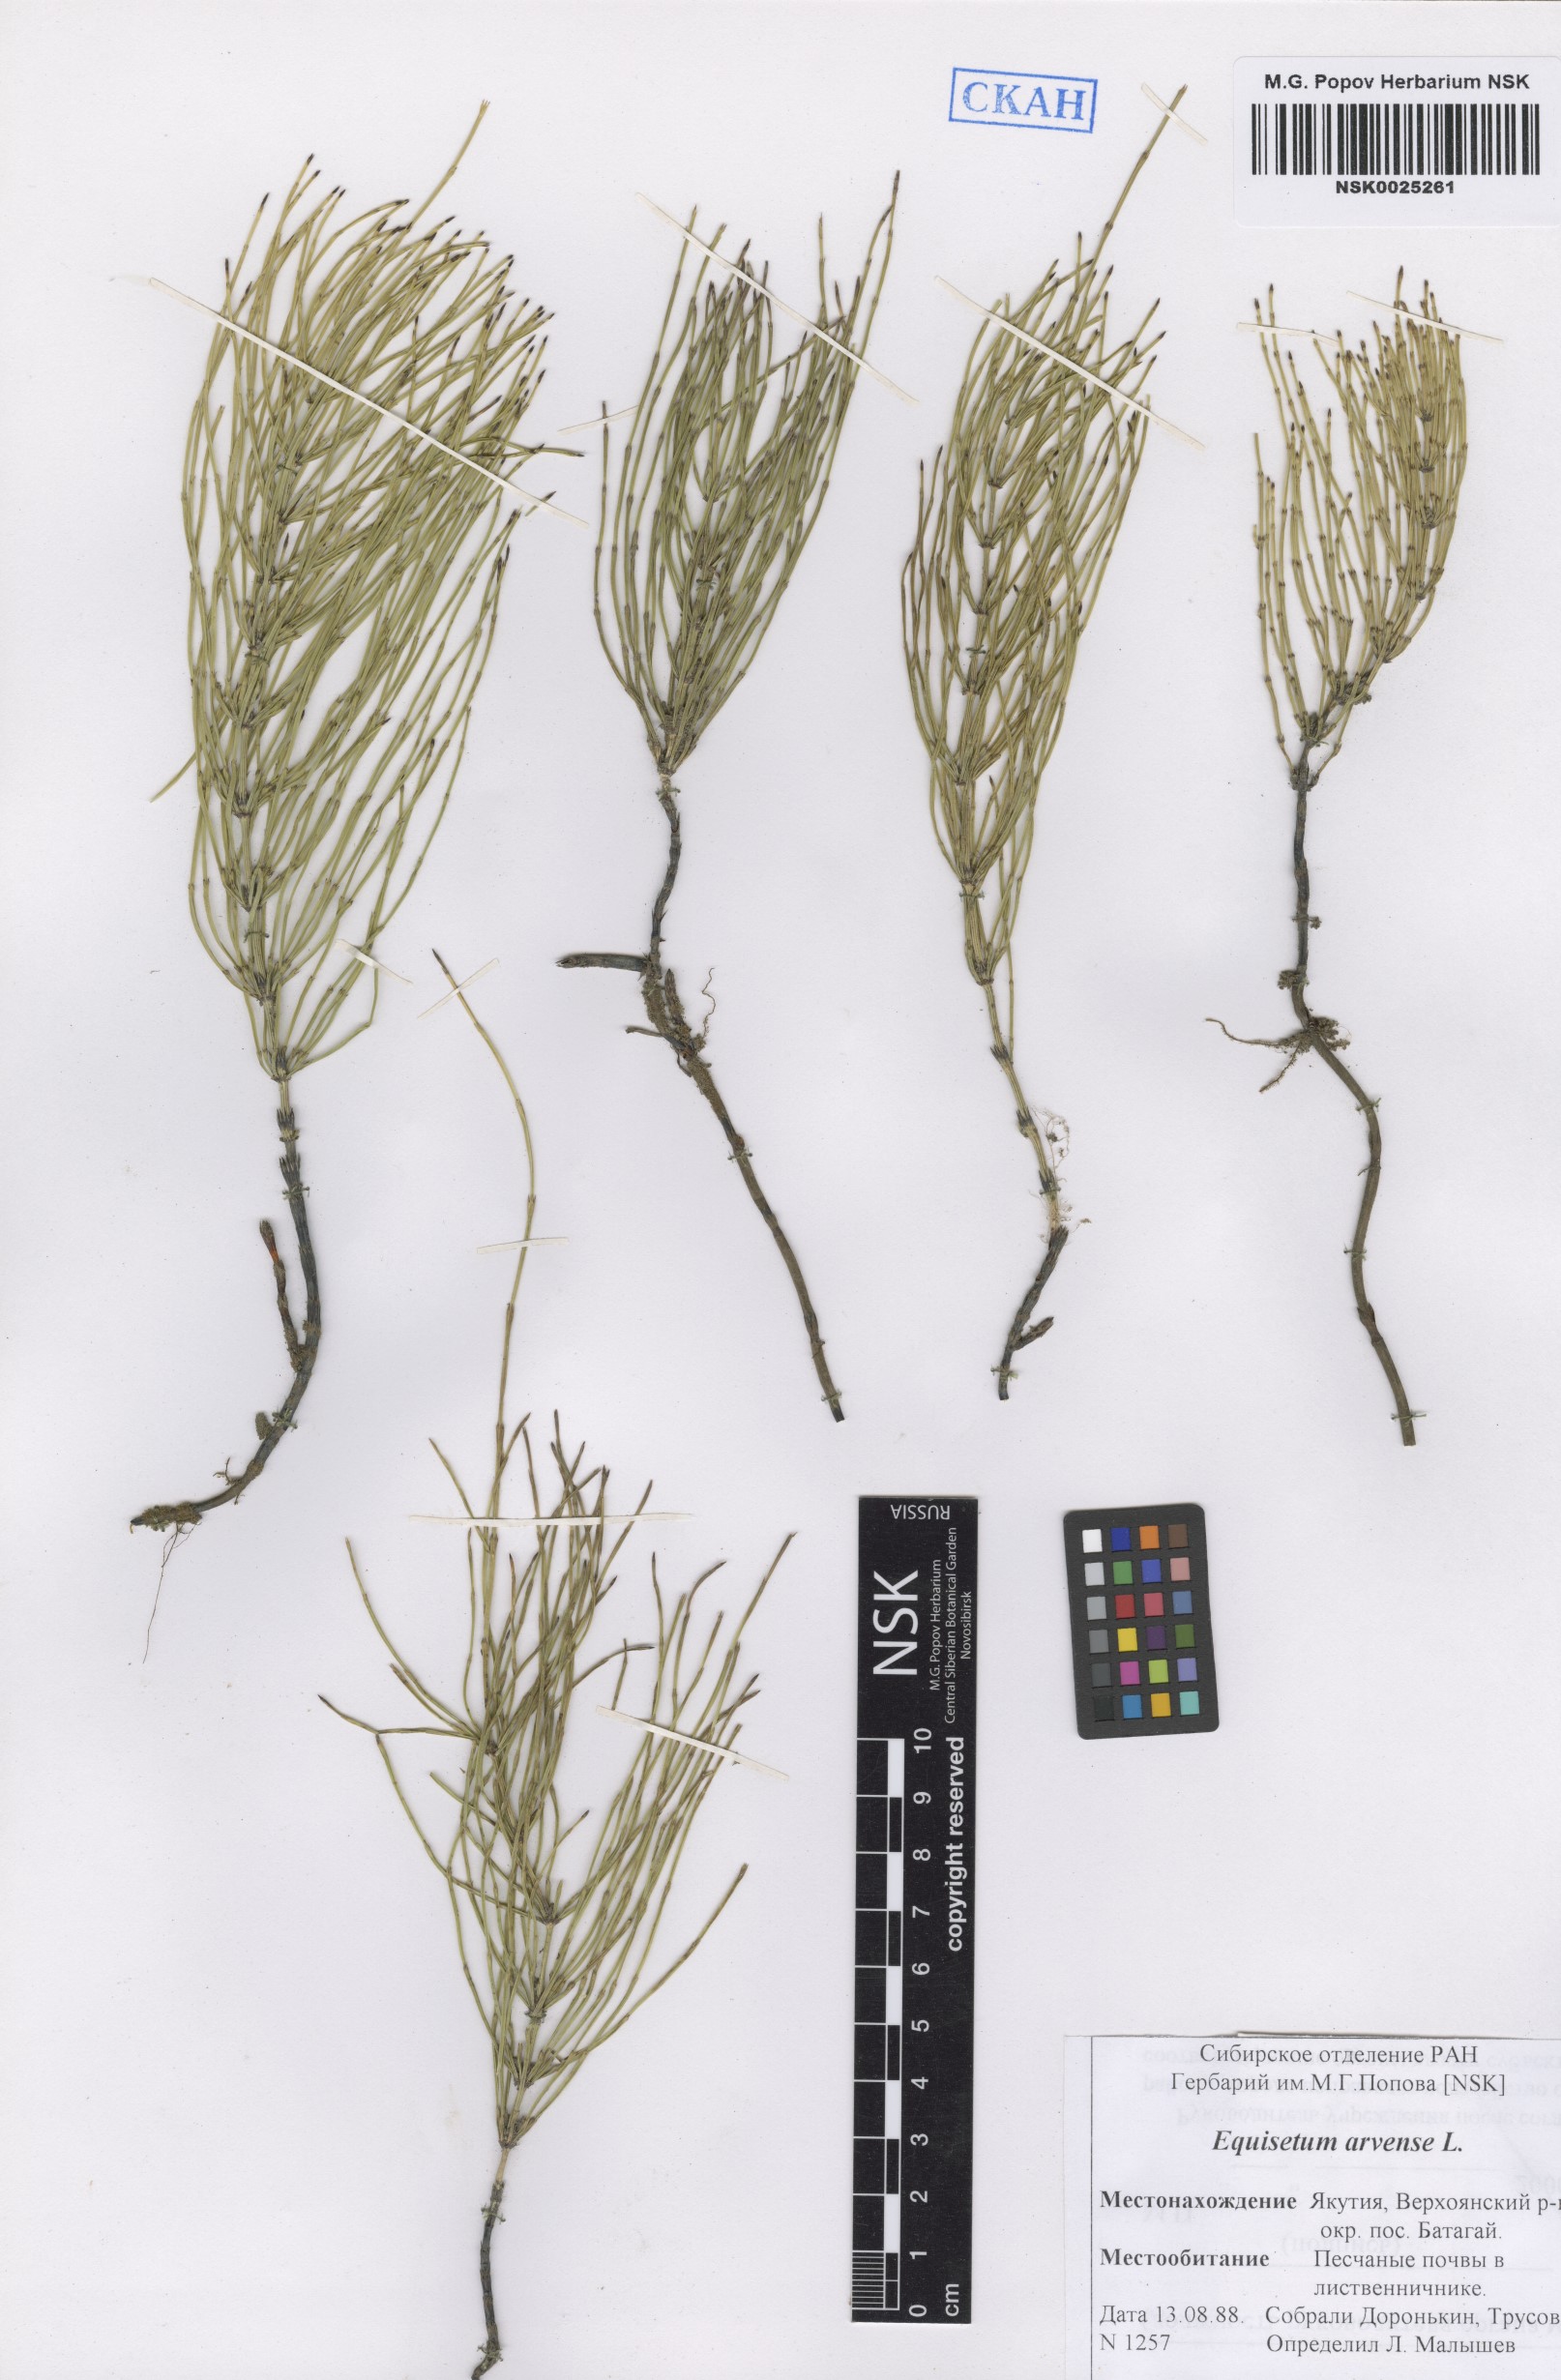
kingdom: Plantae
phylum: Tracheophyta
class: Polypodiopsida
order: Equisetales
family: Equisetaceae
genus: Equisetum
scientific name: Equisetum arvense
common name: Field horsetail
